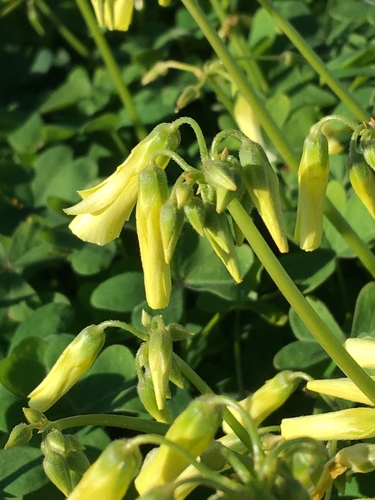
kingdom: Plantae
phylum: Tracheophyta
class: Magnoliopsida
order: Oxalidales
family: Oxalidaceae
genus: Oxalis
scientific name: Oxalis pes-caprae
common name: Bermuda-buttercup
